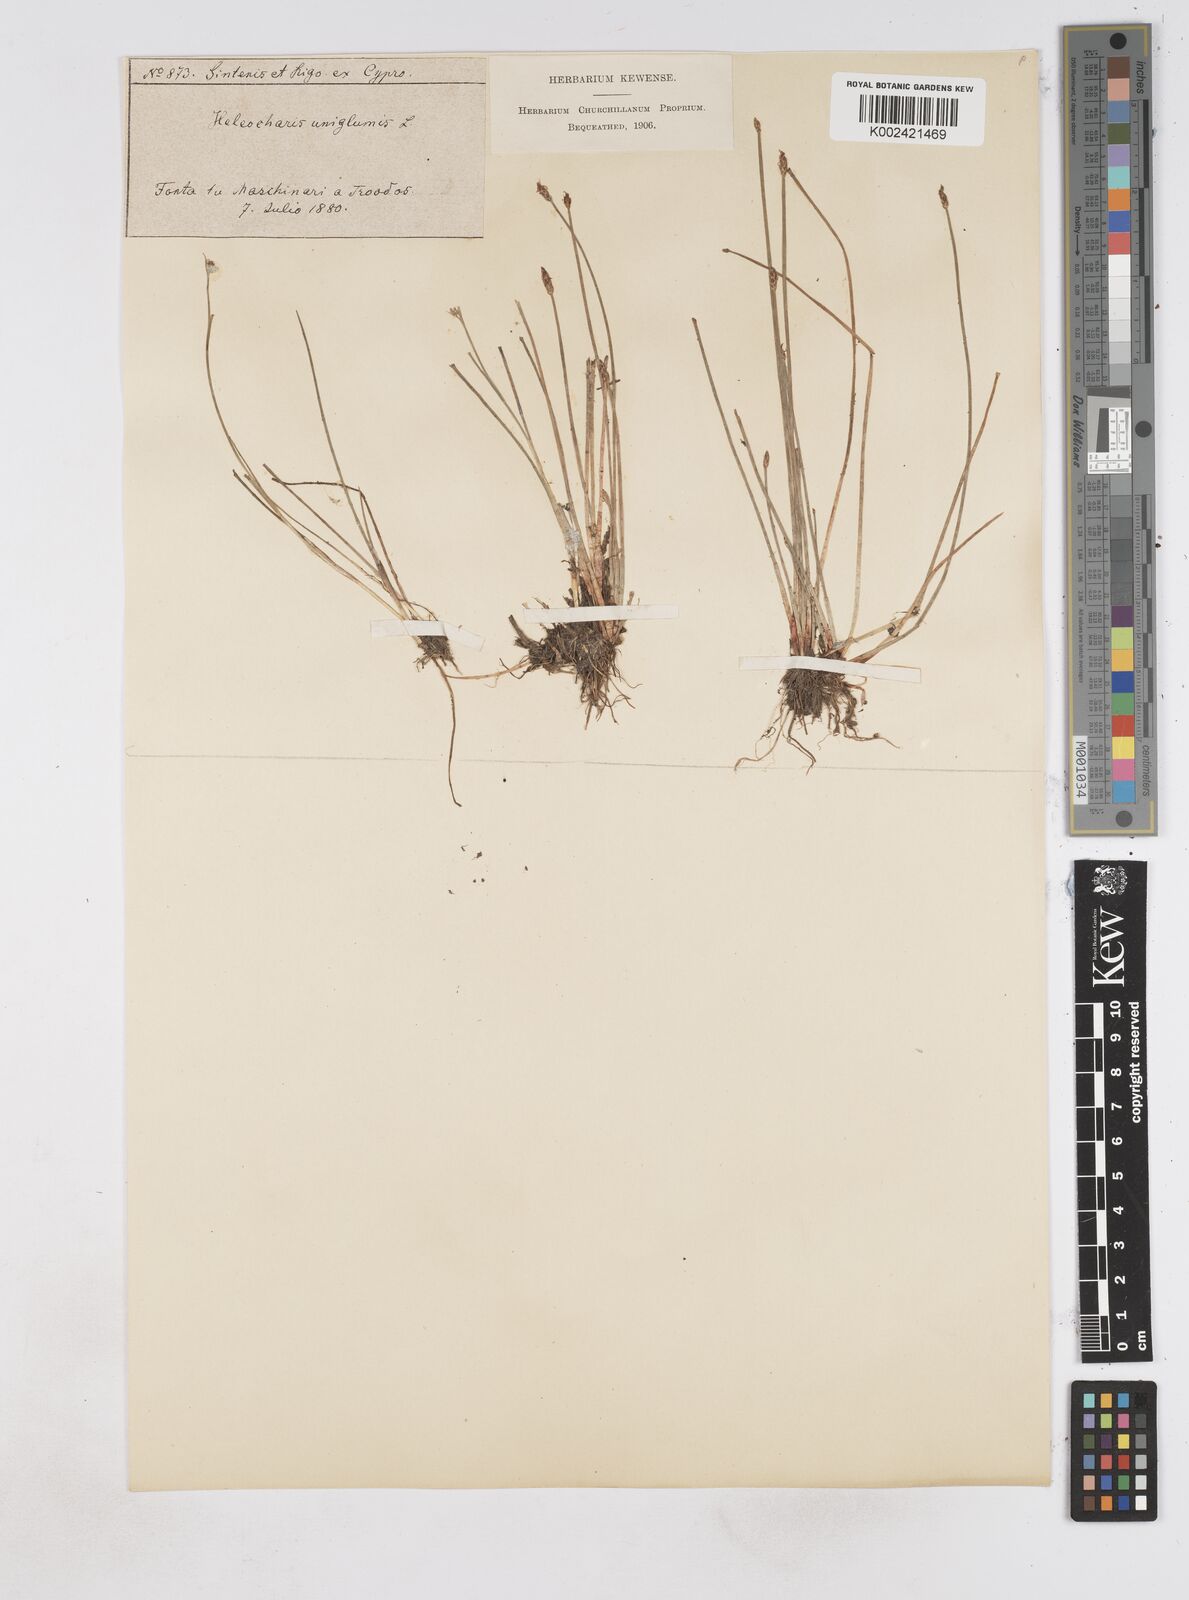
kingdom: Plantae
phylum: Tracheophyta
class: Liliopsida
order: Poales
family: Cyperaceae
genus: Eleocharis
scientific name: Eleocharis uniglumis
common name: Slender spike-rush
